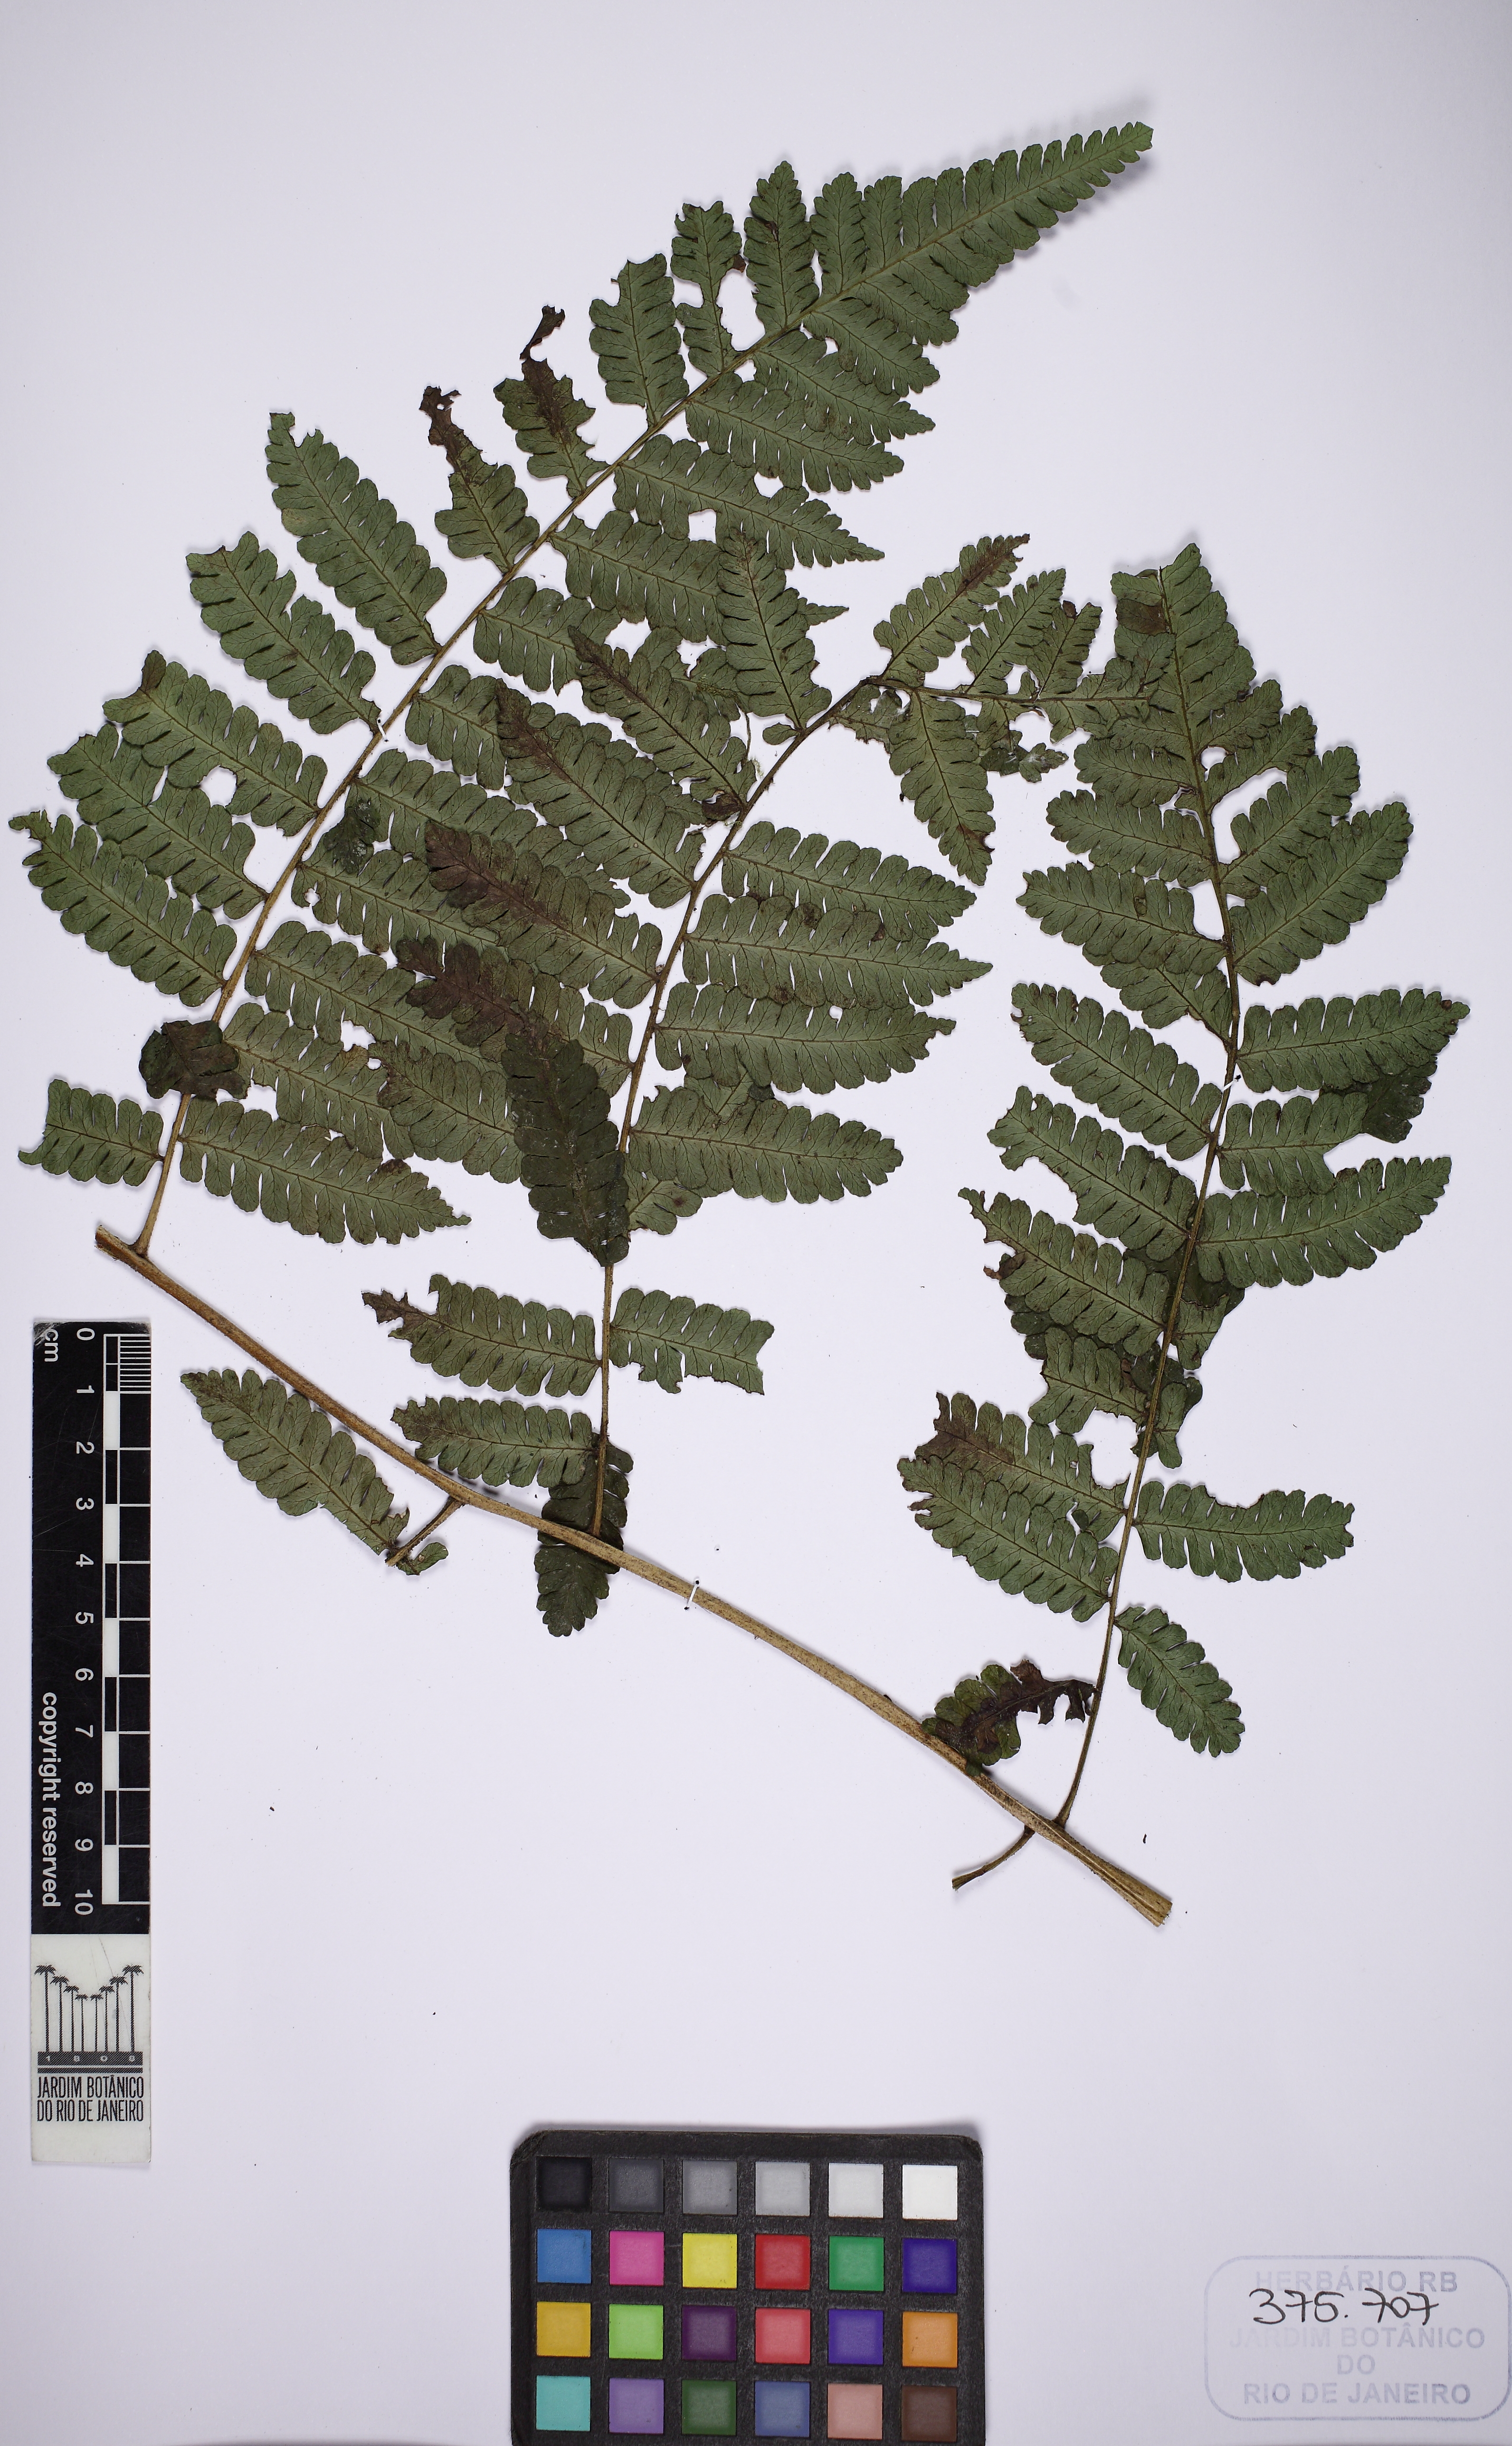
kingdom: Plantae
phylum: Tracheophyta
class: Polypodiopsida
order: Cyatheales
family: Cyatheaceae
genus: Cyathea
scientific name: Cyathea abbreviata
